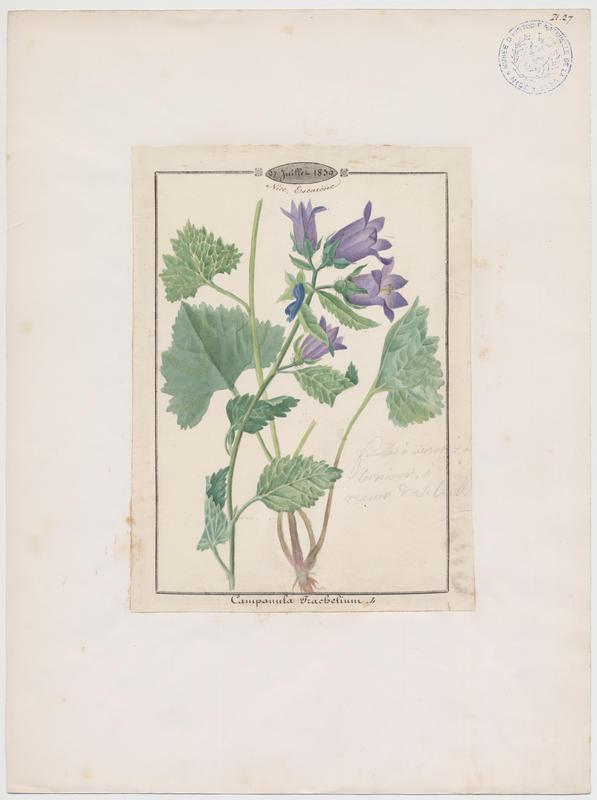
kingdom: Plantae
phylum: Tracheophyta
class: Magnoliopsida
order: Asterales
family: Campanulaceae
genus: Campanula
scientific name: Campanula trachelium
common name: Nettle-leaved bellflower
